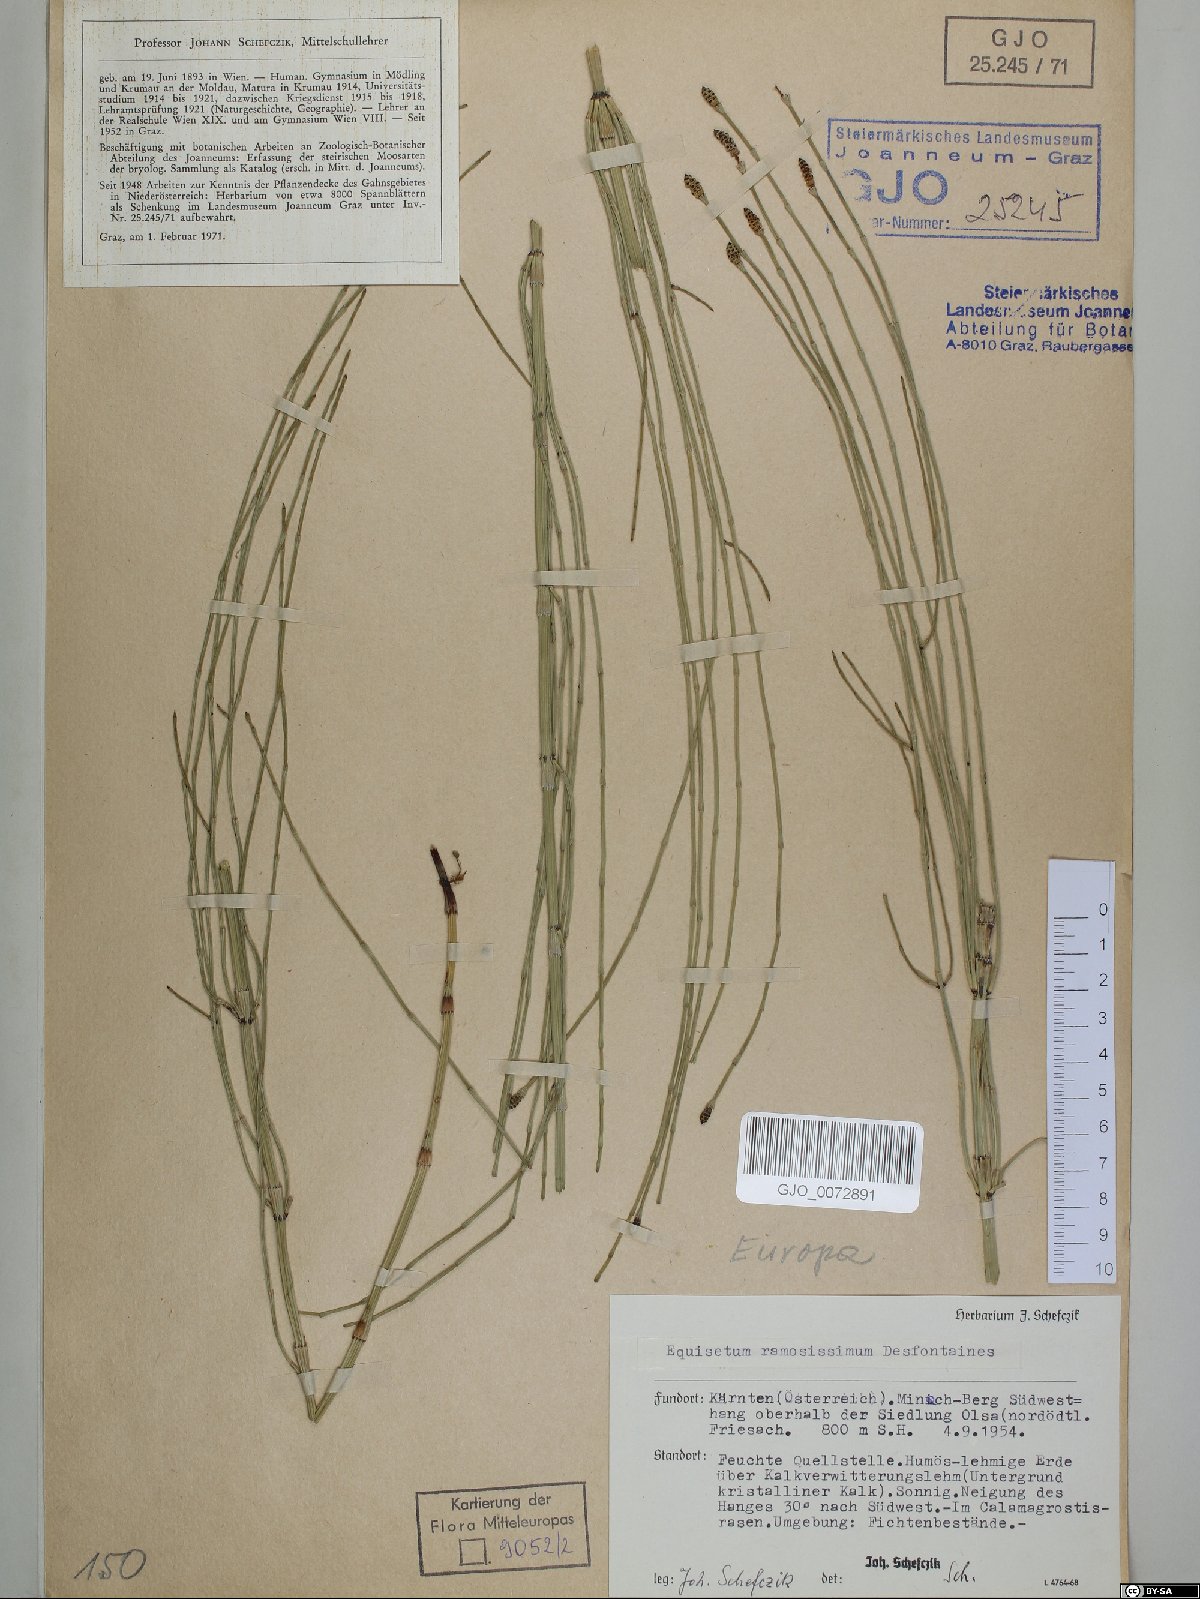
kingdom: Plantae
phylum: Tracheophyta
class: Polypodiopsida
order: Equisetales
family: Equisetaceae
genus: Equisetum
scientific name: Equisetum ramosissimum
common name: Branched horsetail
